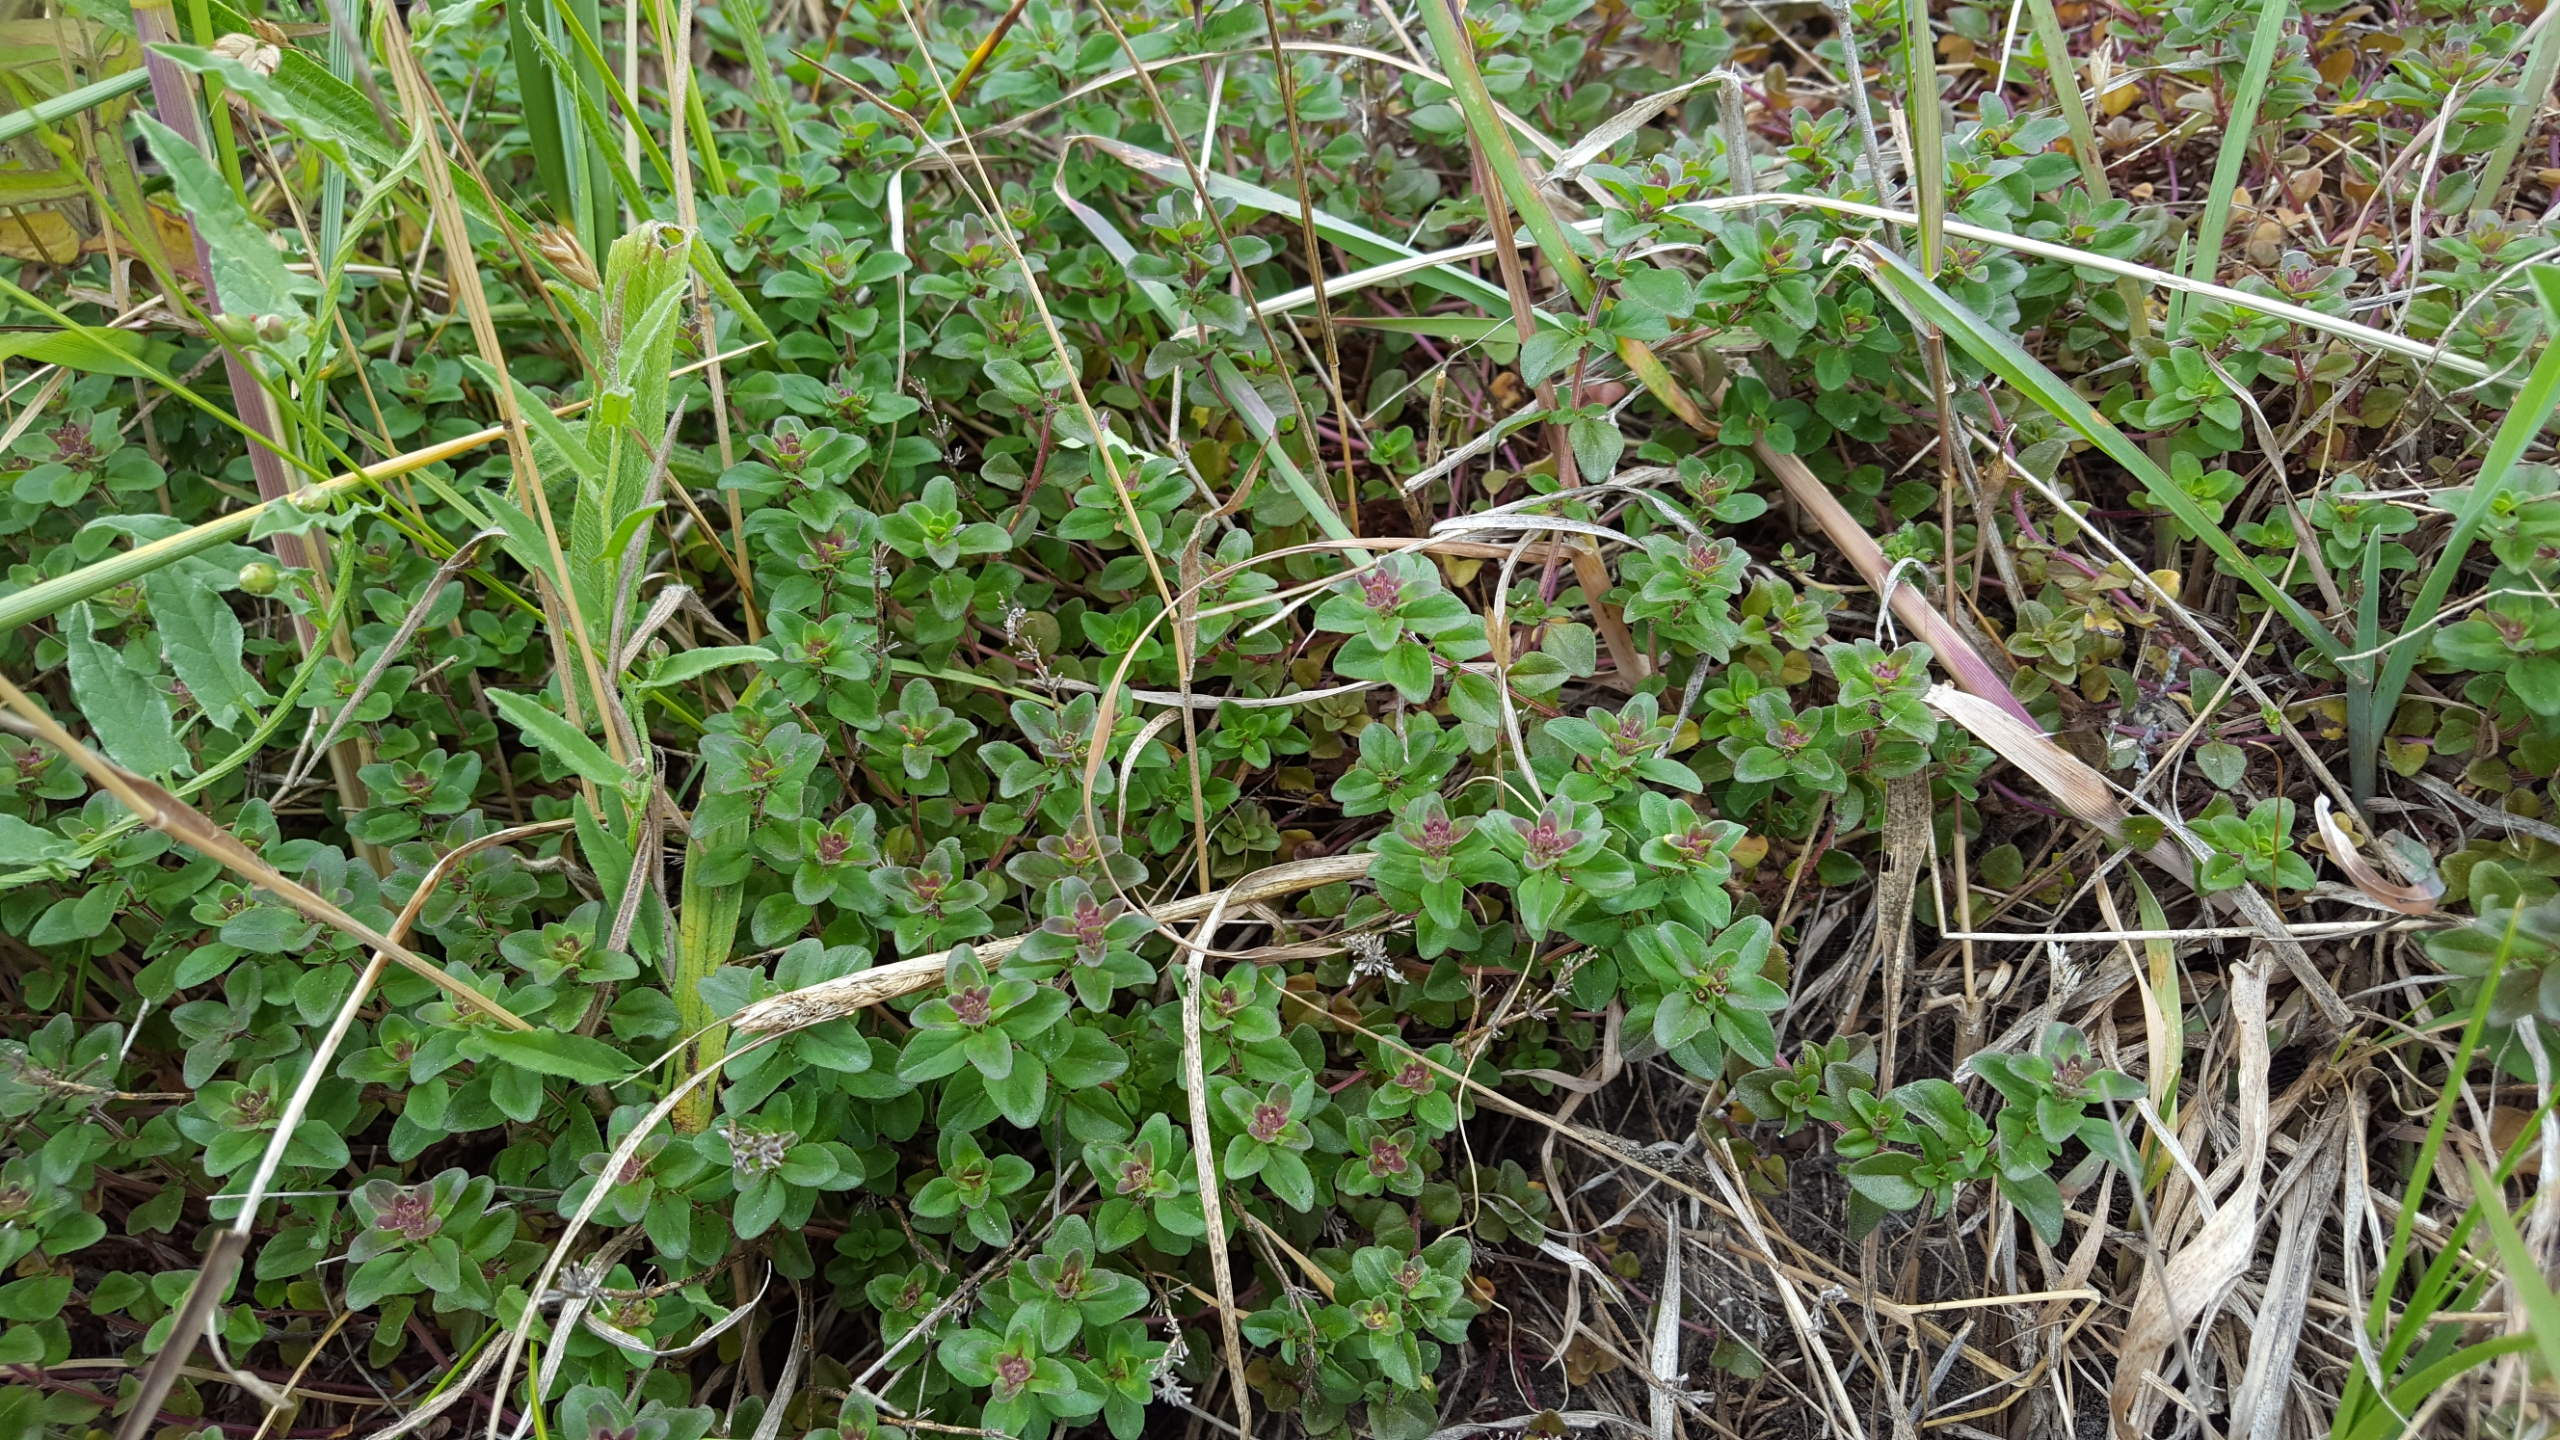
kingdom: Plantae
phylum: Tracheophyta
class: Magnoliopsida
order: Lamiales
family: Lamiaceae
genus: Thymus
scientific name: Thymus pulegioides
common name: Bredbladet timian
